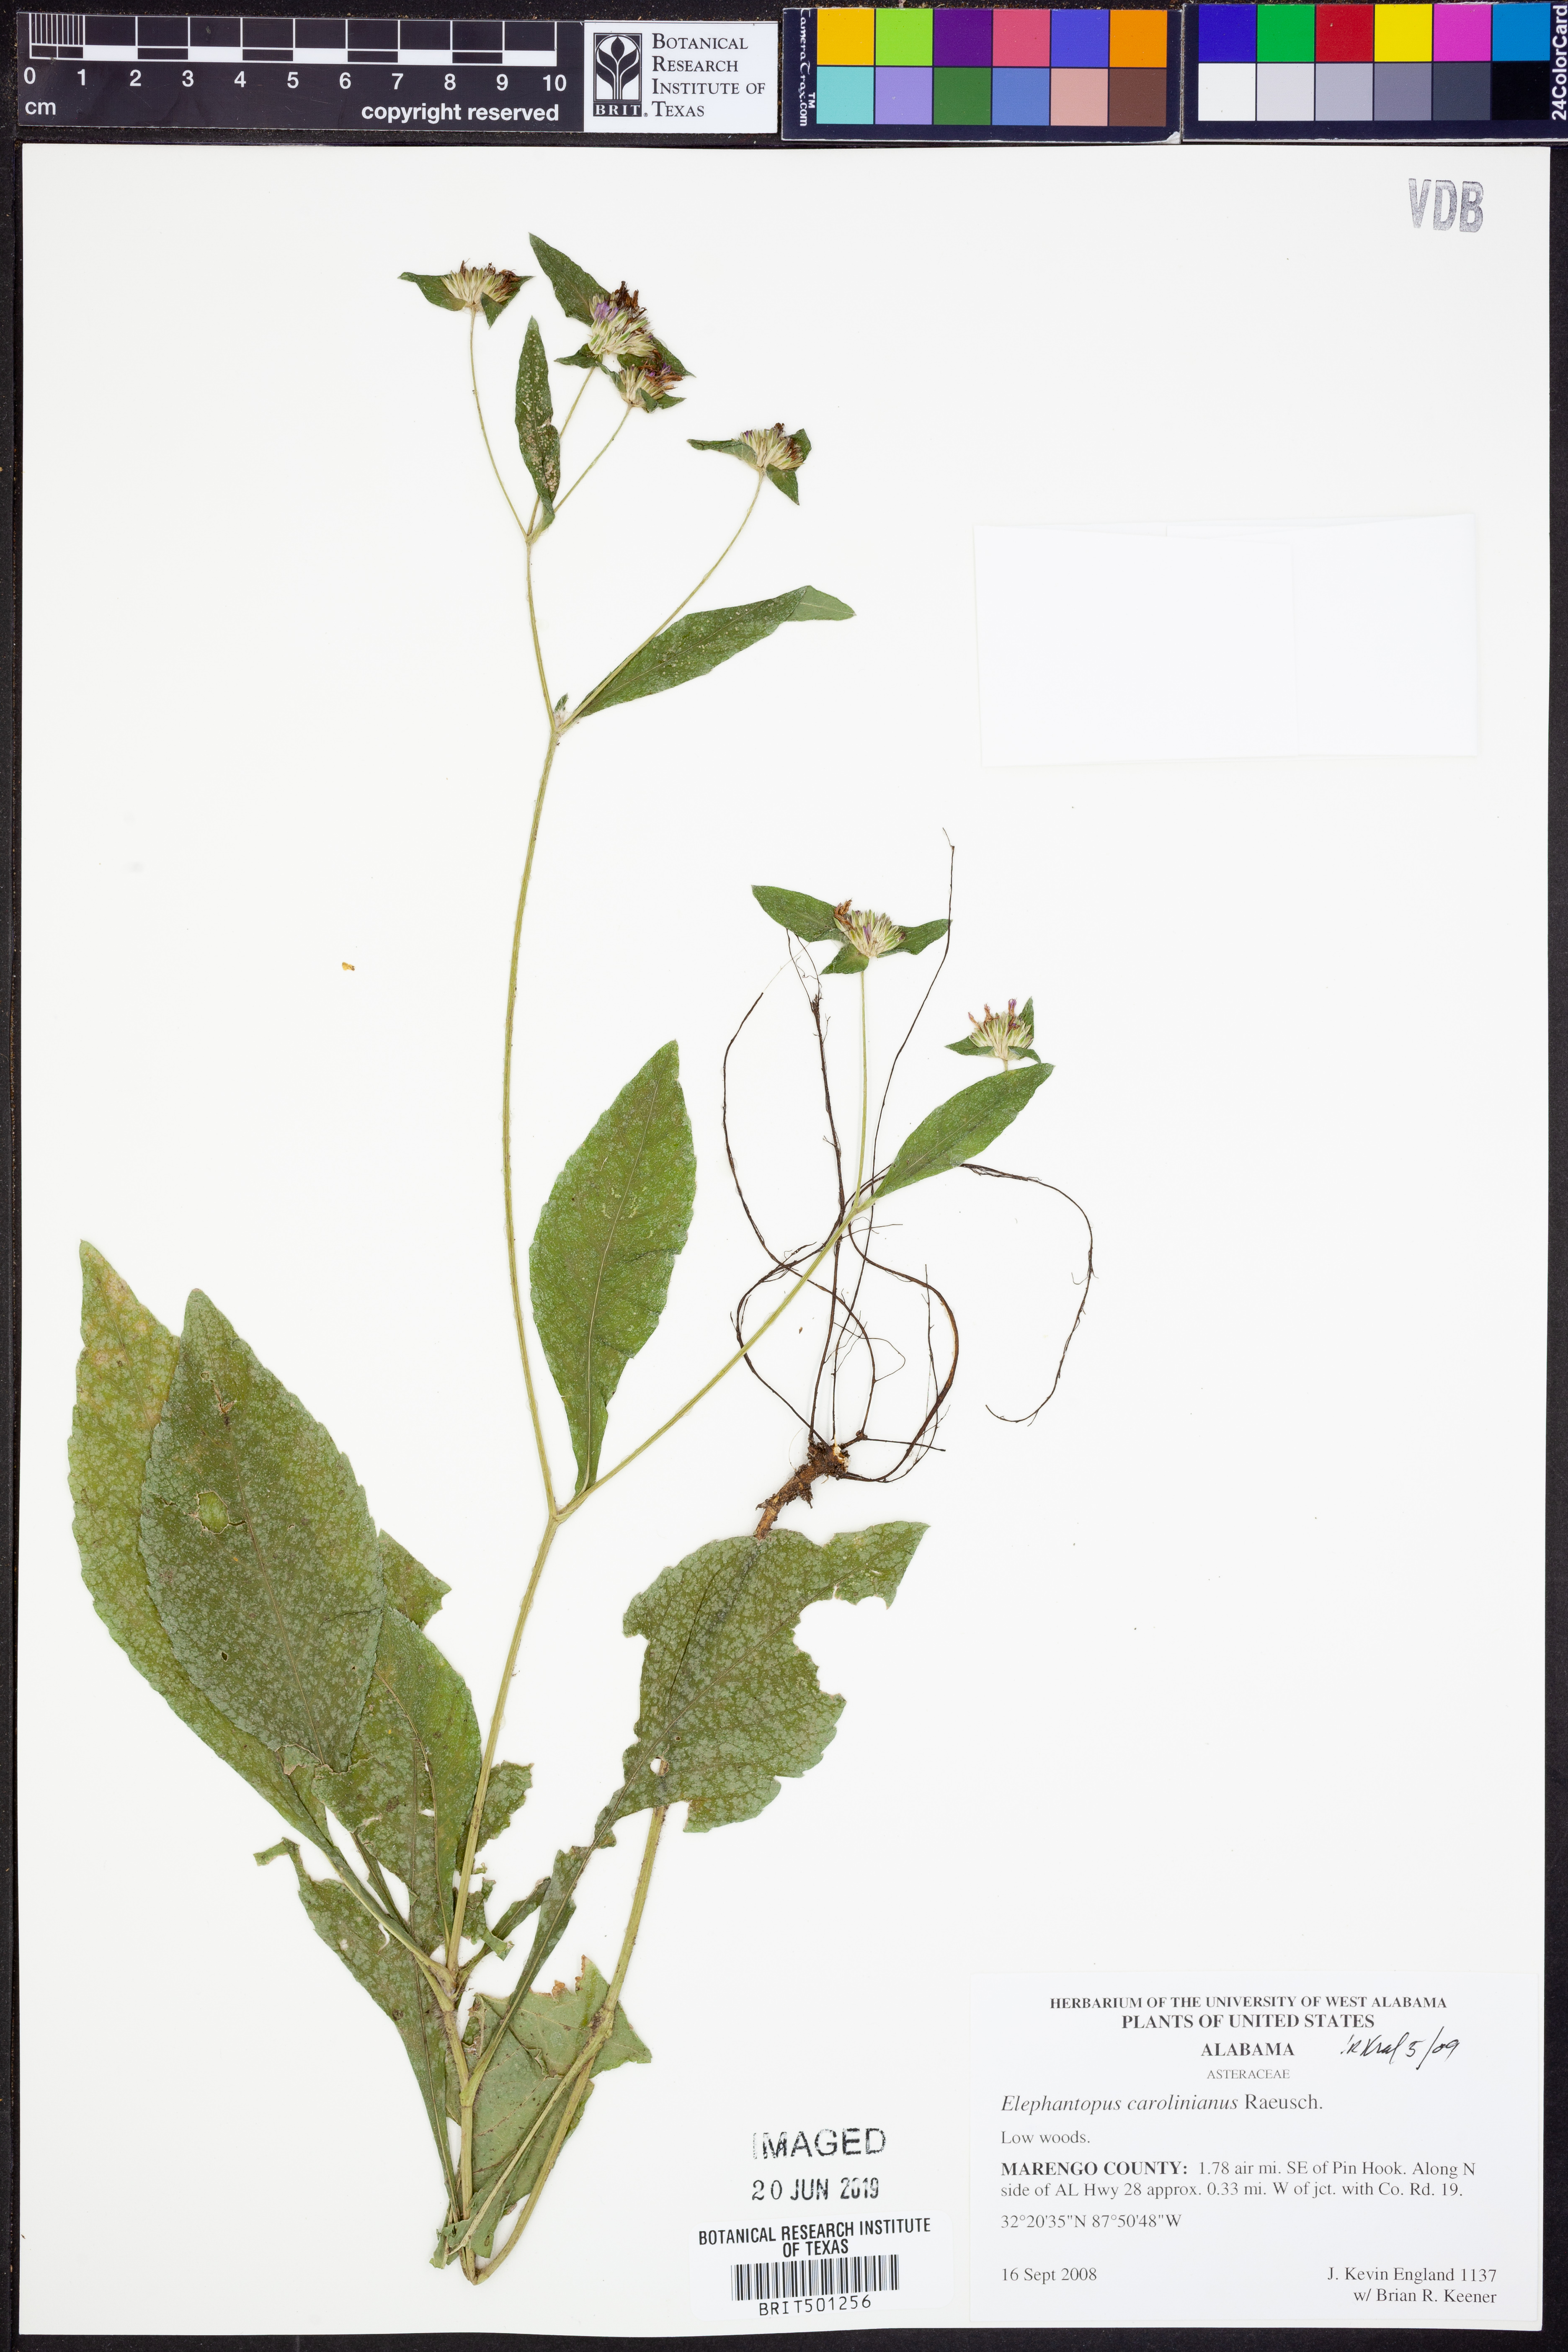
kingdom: Plantae
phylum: Tracheophyta
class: Magnoliopsida
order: Asterales
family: Asteraceae
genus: Elephantopus
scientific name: Elephantopus carolinianus
